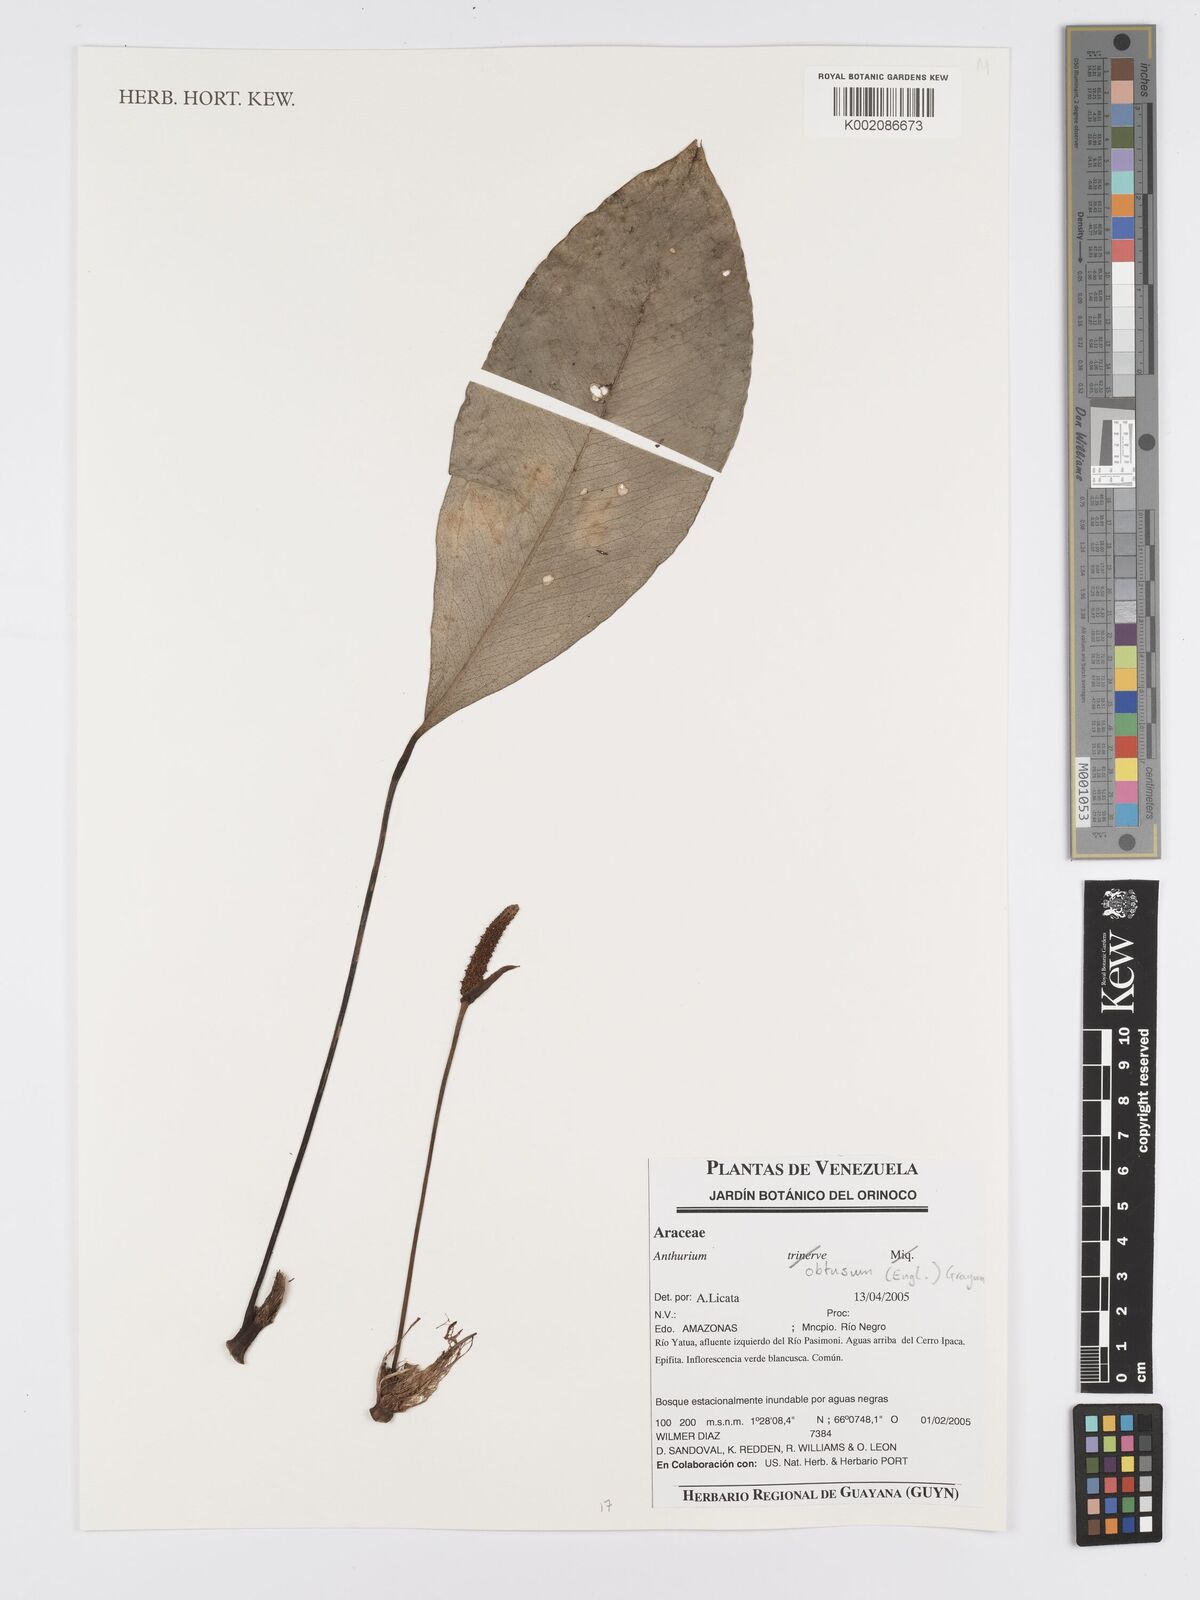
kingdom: Plantae
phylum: Tracheophyta
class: Liliopsida
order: Alismatales
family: Araceae
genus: Anthurium
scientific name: Anthurium obtusum
